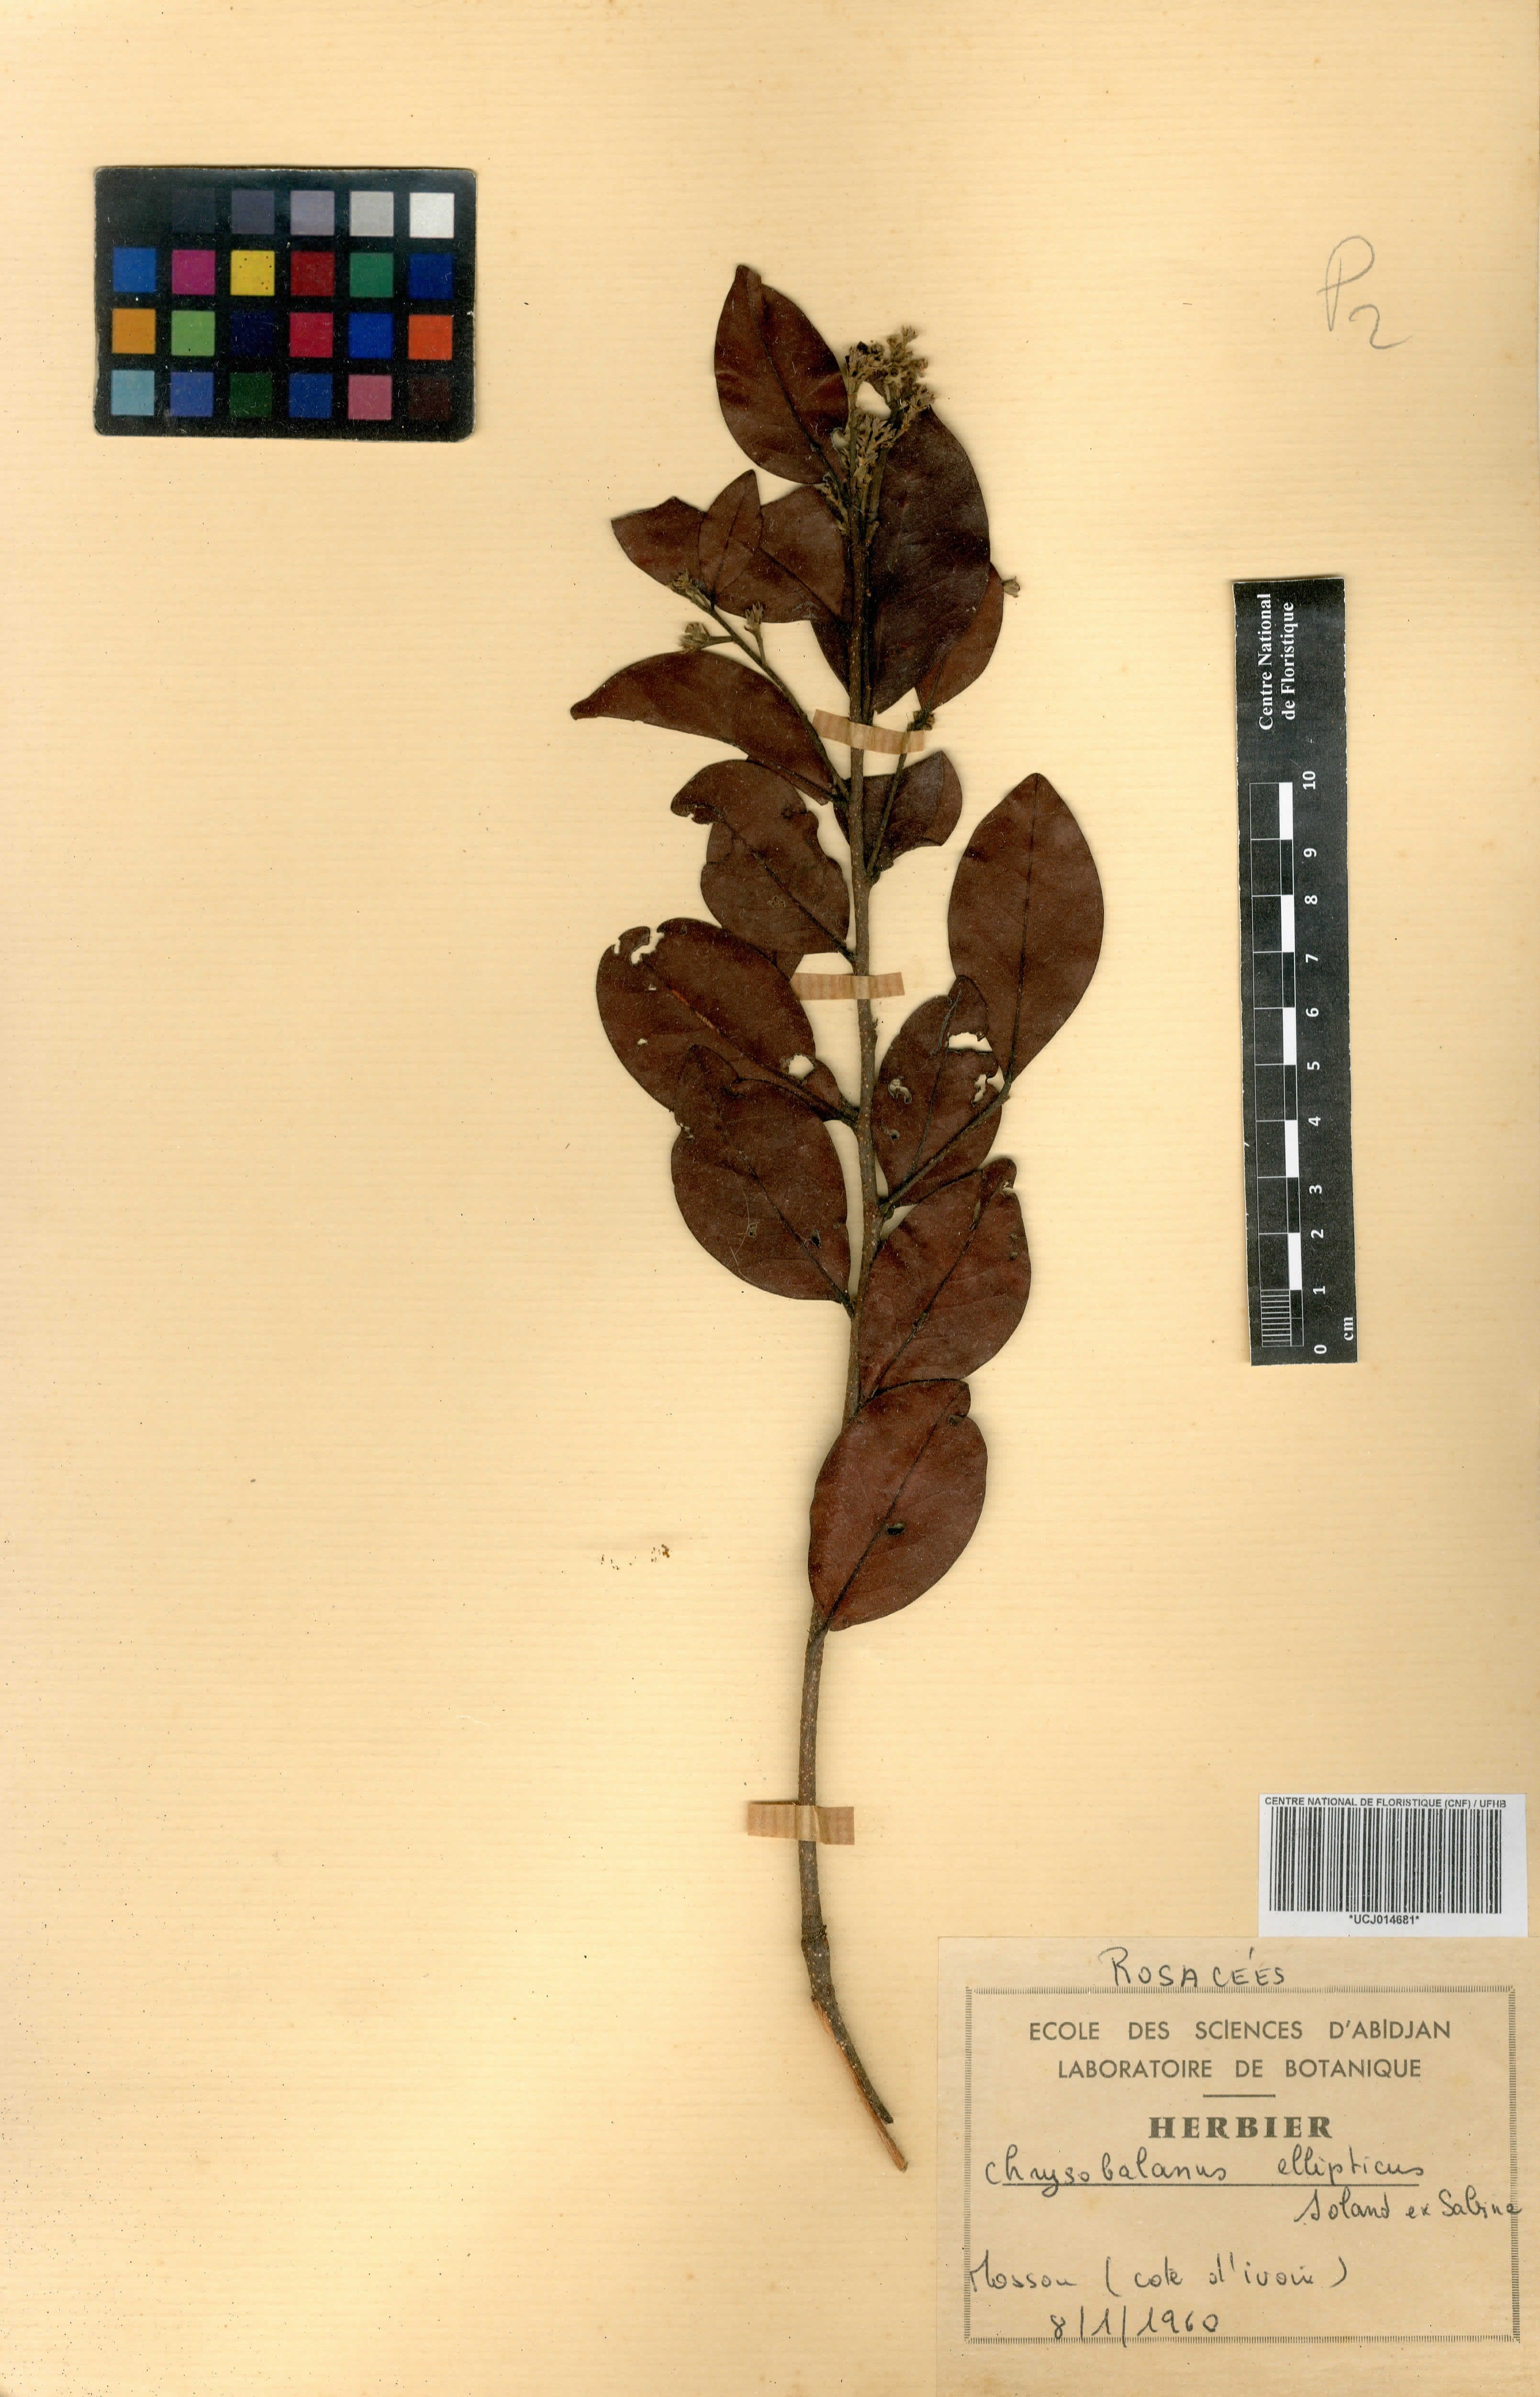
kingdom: Plantae
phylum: Tracheophyta
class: Magnoliopsida
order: Malpighiales
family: Chrysobalanaceae
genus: Chrysobalanus
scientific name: Chrysobalanus icaco
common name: Coco plum
